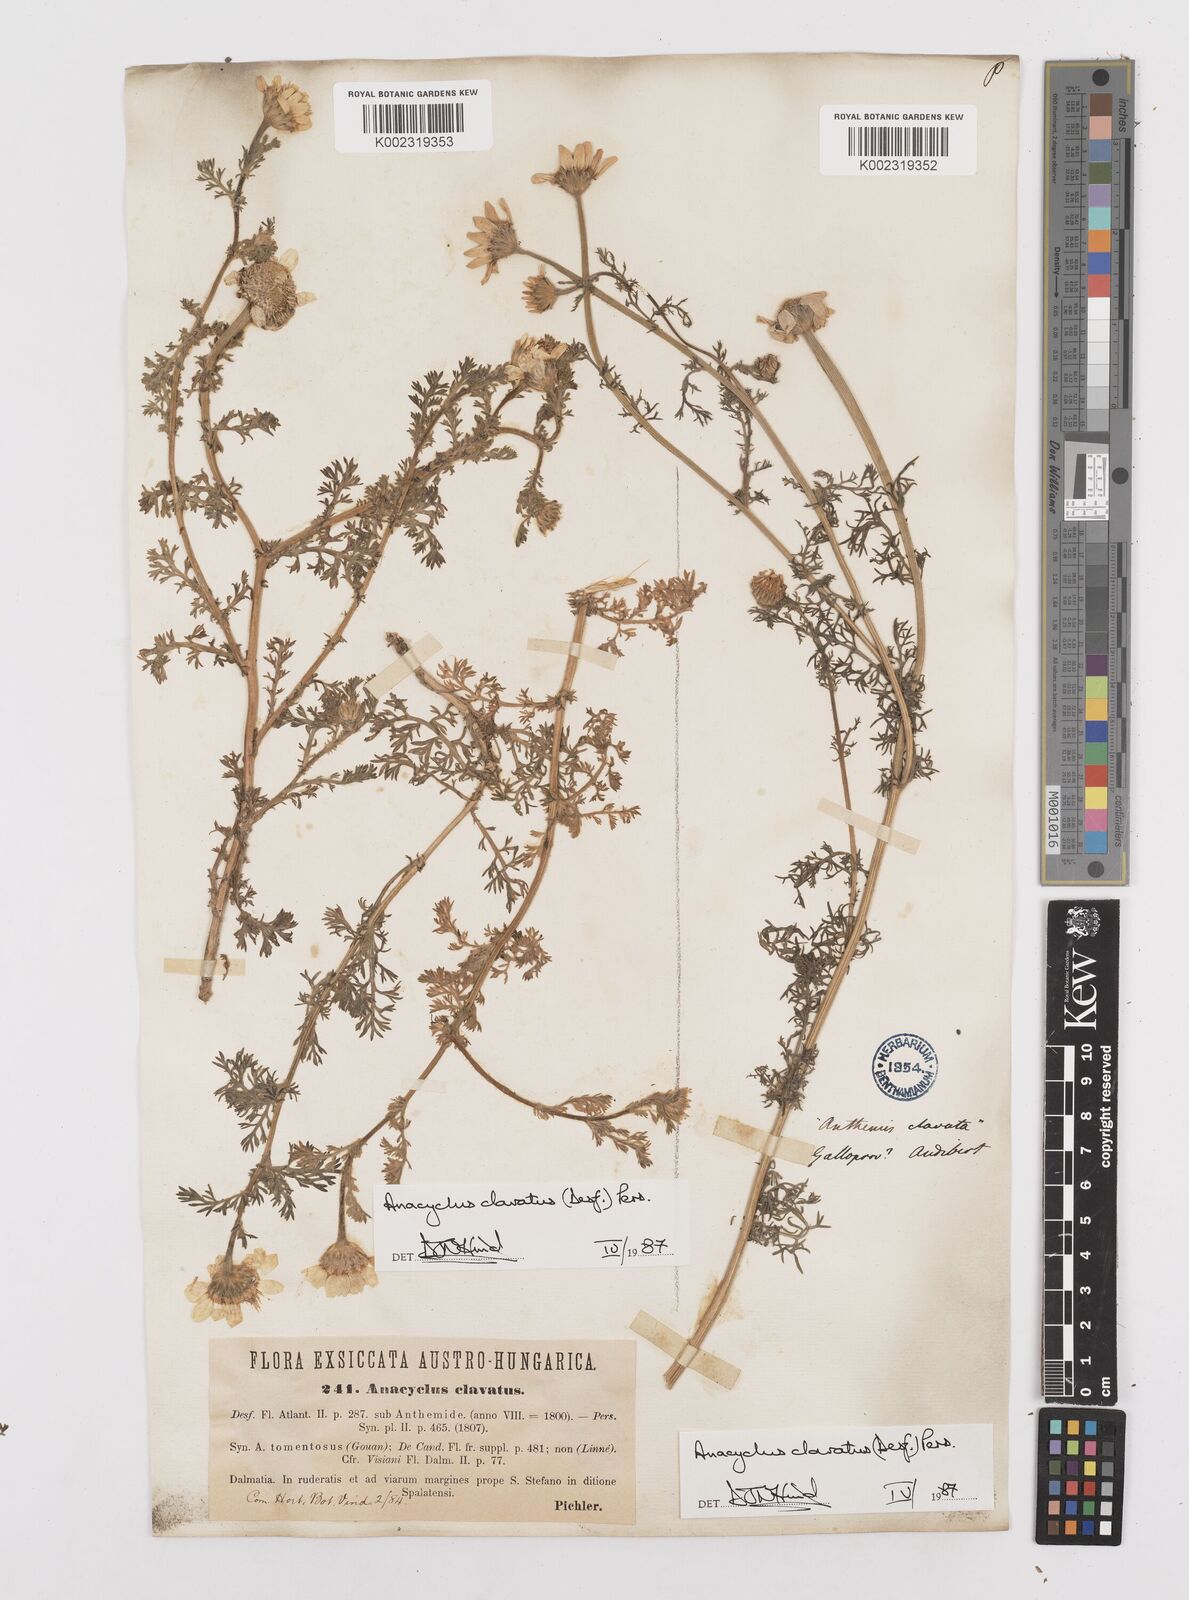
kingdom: Plantae
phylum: Tracheophyta
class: Magnoliopsida
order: Asterales
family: Asteraceae
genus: Anacyclus
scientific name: Anacyclus clavatus
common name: Whitebuttons
